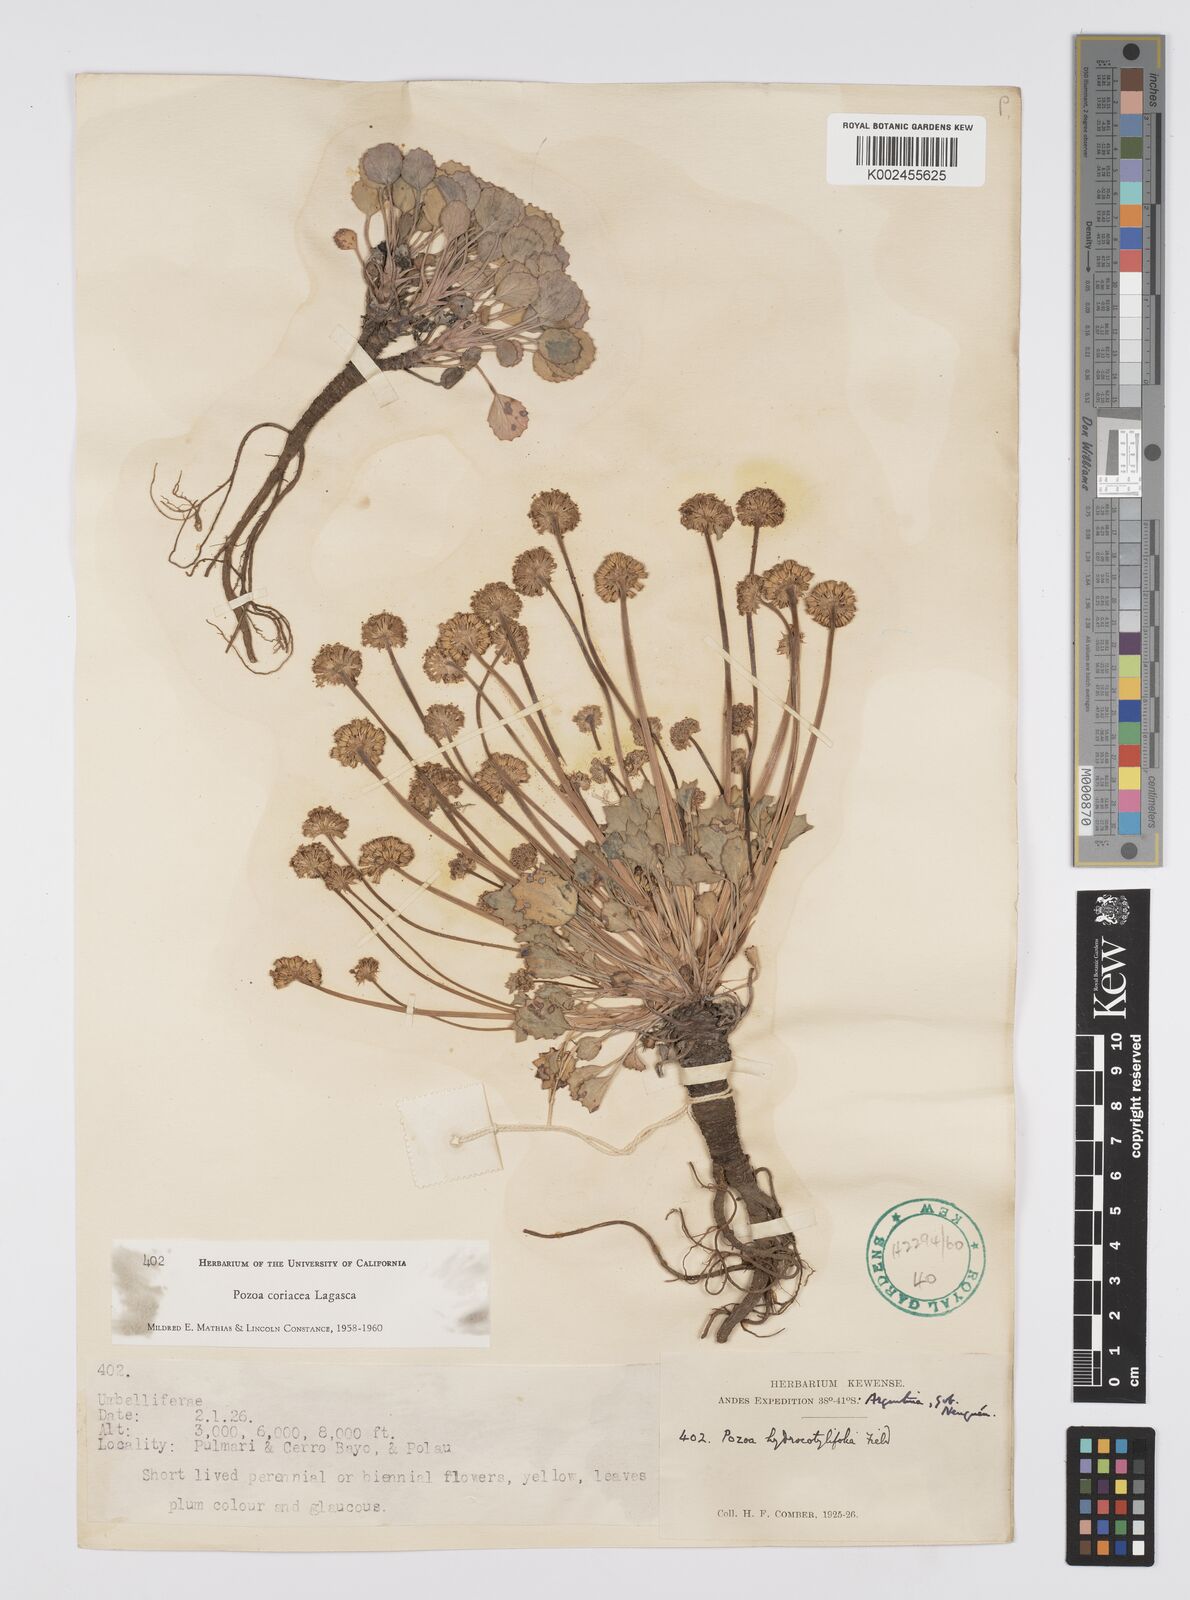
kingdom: Plantae
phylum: Tracheophyta
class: Magnoliopsida
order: Apiales
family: Apiaceae
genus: Pozoa
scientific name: Pozoa coriacea
